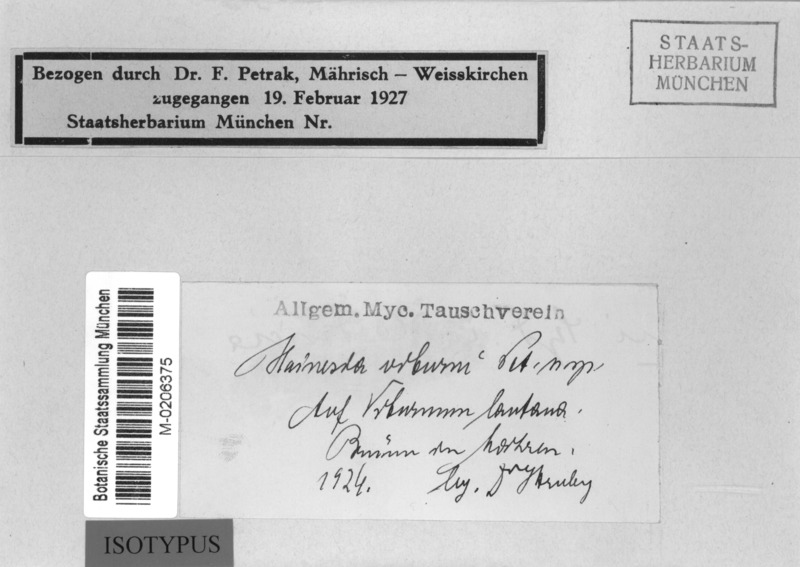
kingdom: Fungi
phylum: Ascomycota
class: Leotiomycetes
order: Chaetomellales
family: Chaetomellaceae
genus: Hainesia
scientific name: Hainesia viburni
